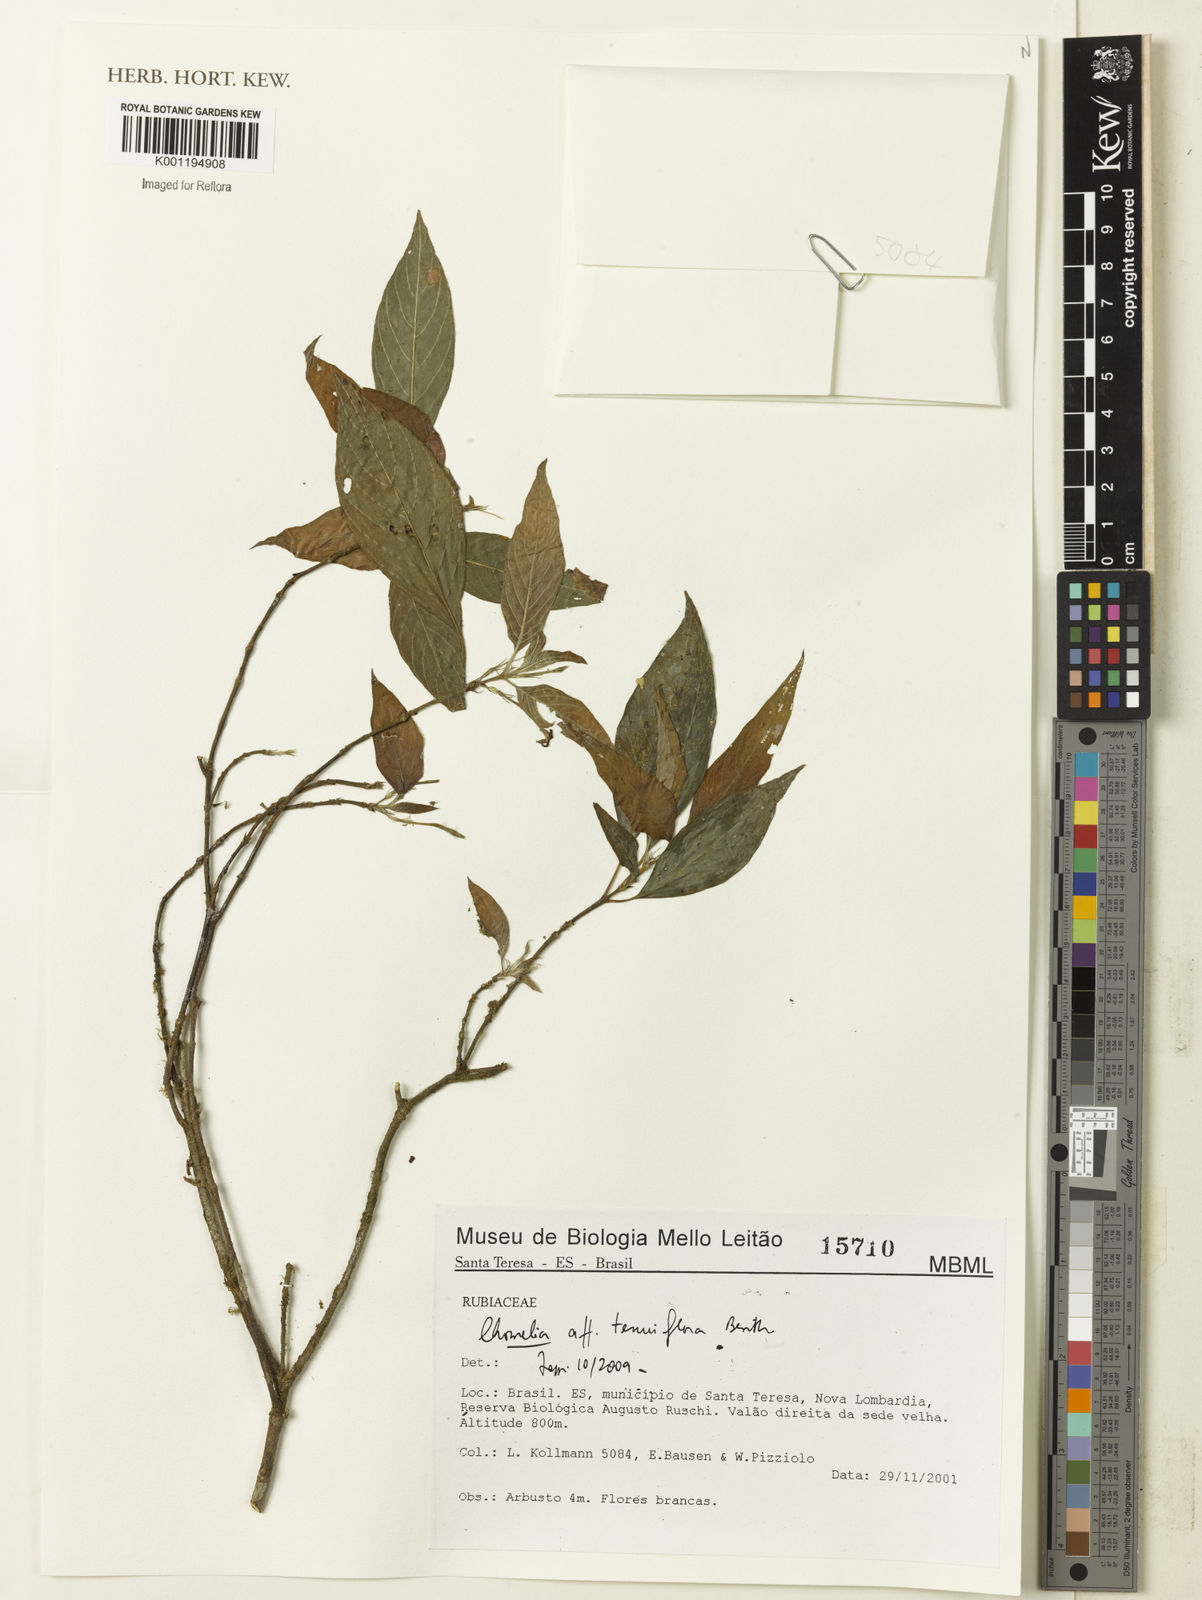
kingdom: Plantae
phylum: Tracheophyta
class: Magnoliopsida
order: Gentianales
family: Rubiaceae
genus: Chomelia
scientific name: Chomelia tenuiflora
